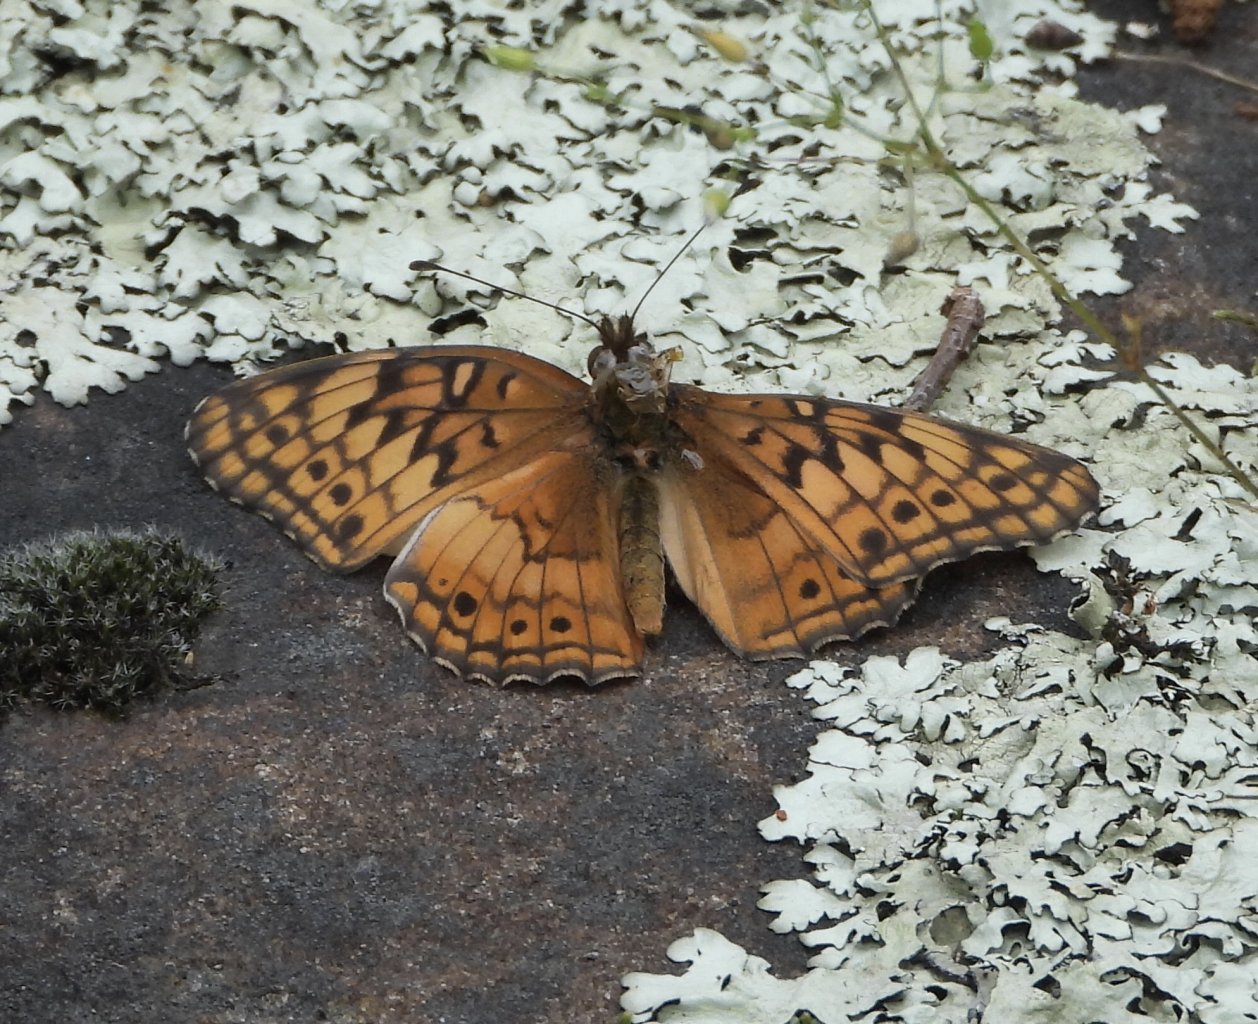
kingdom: Animalia
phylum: Arthropoda
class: Insecta
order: Lepidoptera
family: Nymphalidae
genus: Euptoieta
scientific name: Euptoieta claudia
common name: Variegated Fritillary
